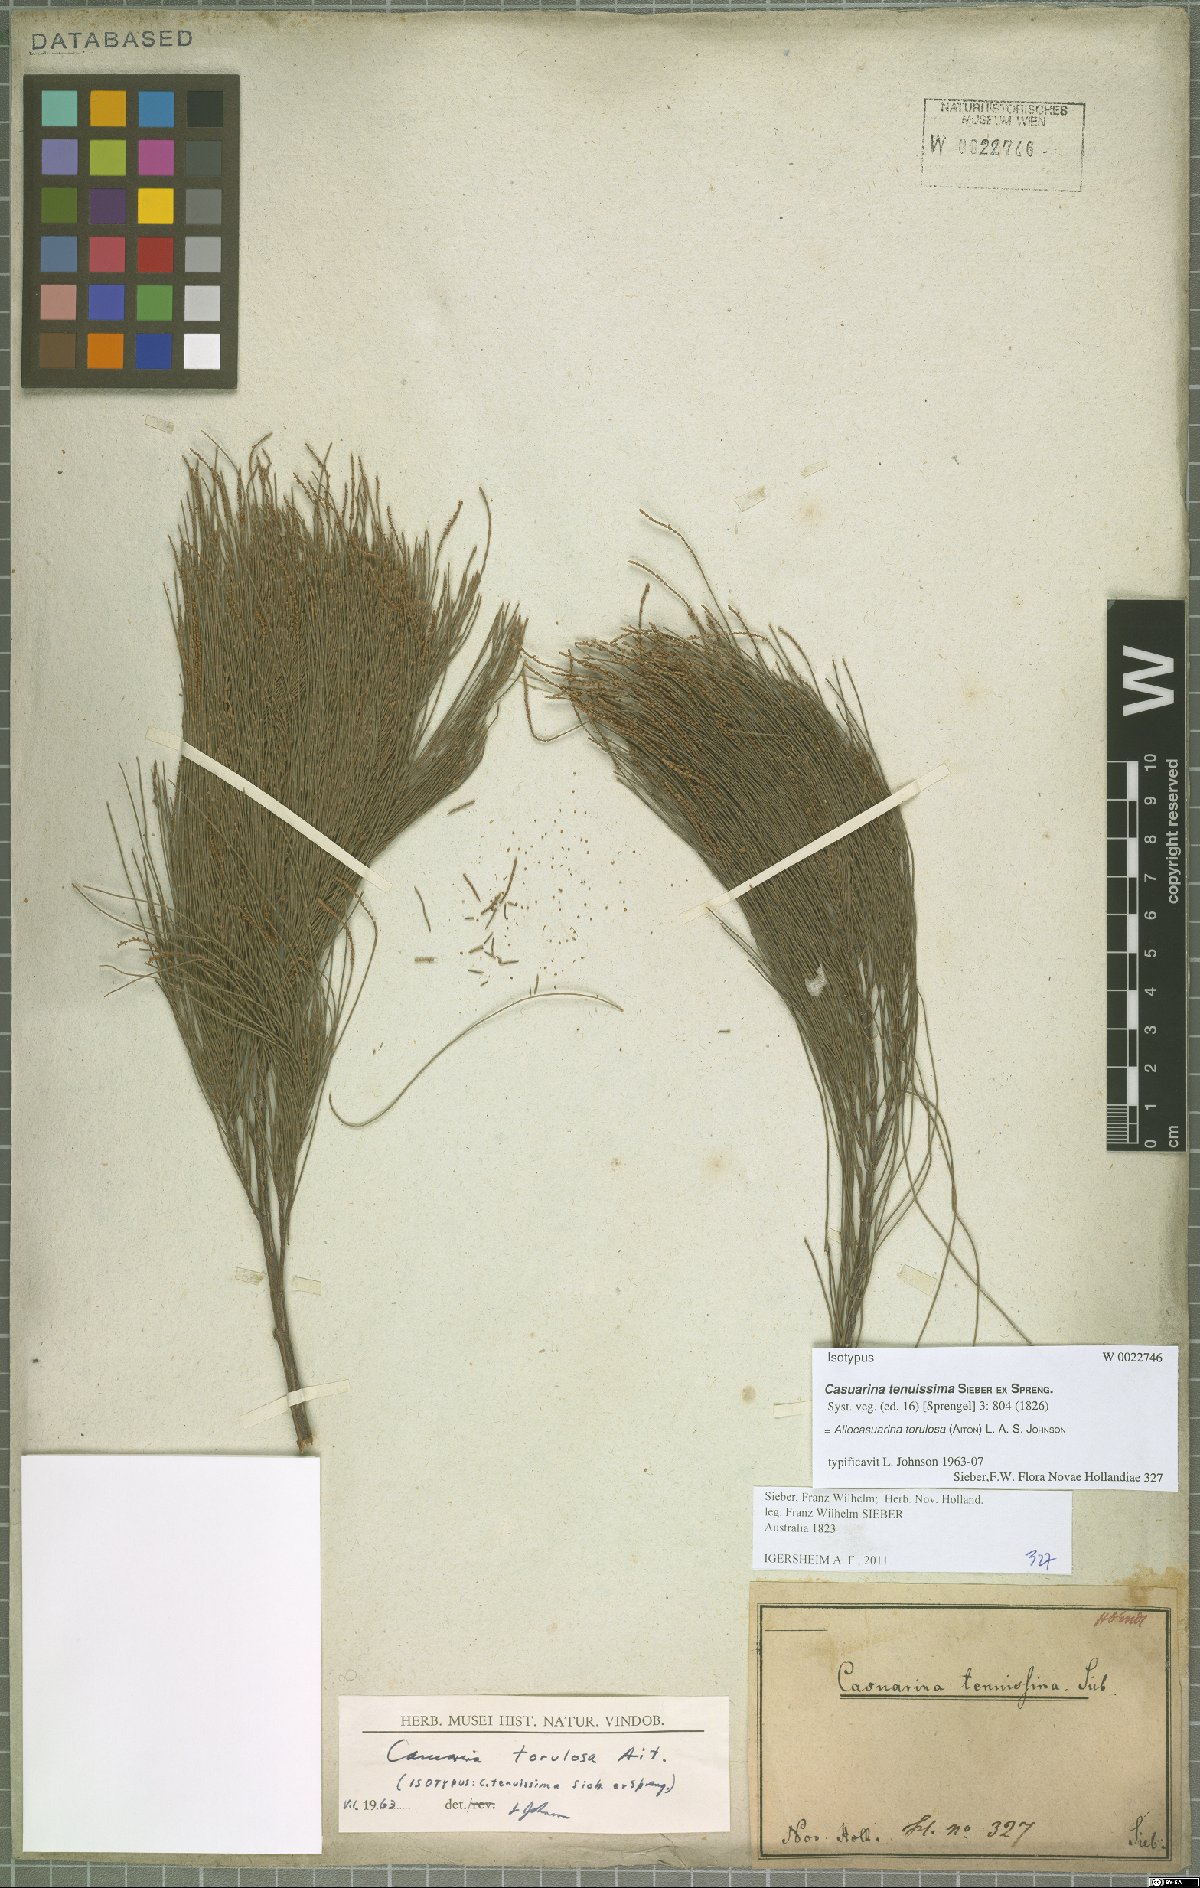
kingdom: Plantae
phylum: Tracheophyta
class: Magnoliopsida
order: Fagales
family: Casuarinaceae
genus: Allocasuarina
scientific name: Allocasuarina torulosa
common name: Forest-oak
